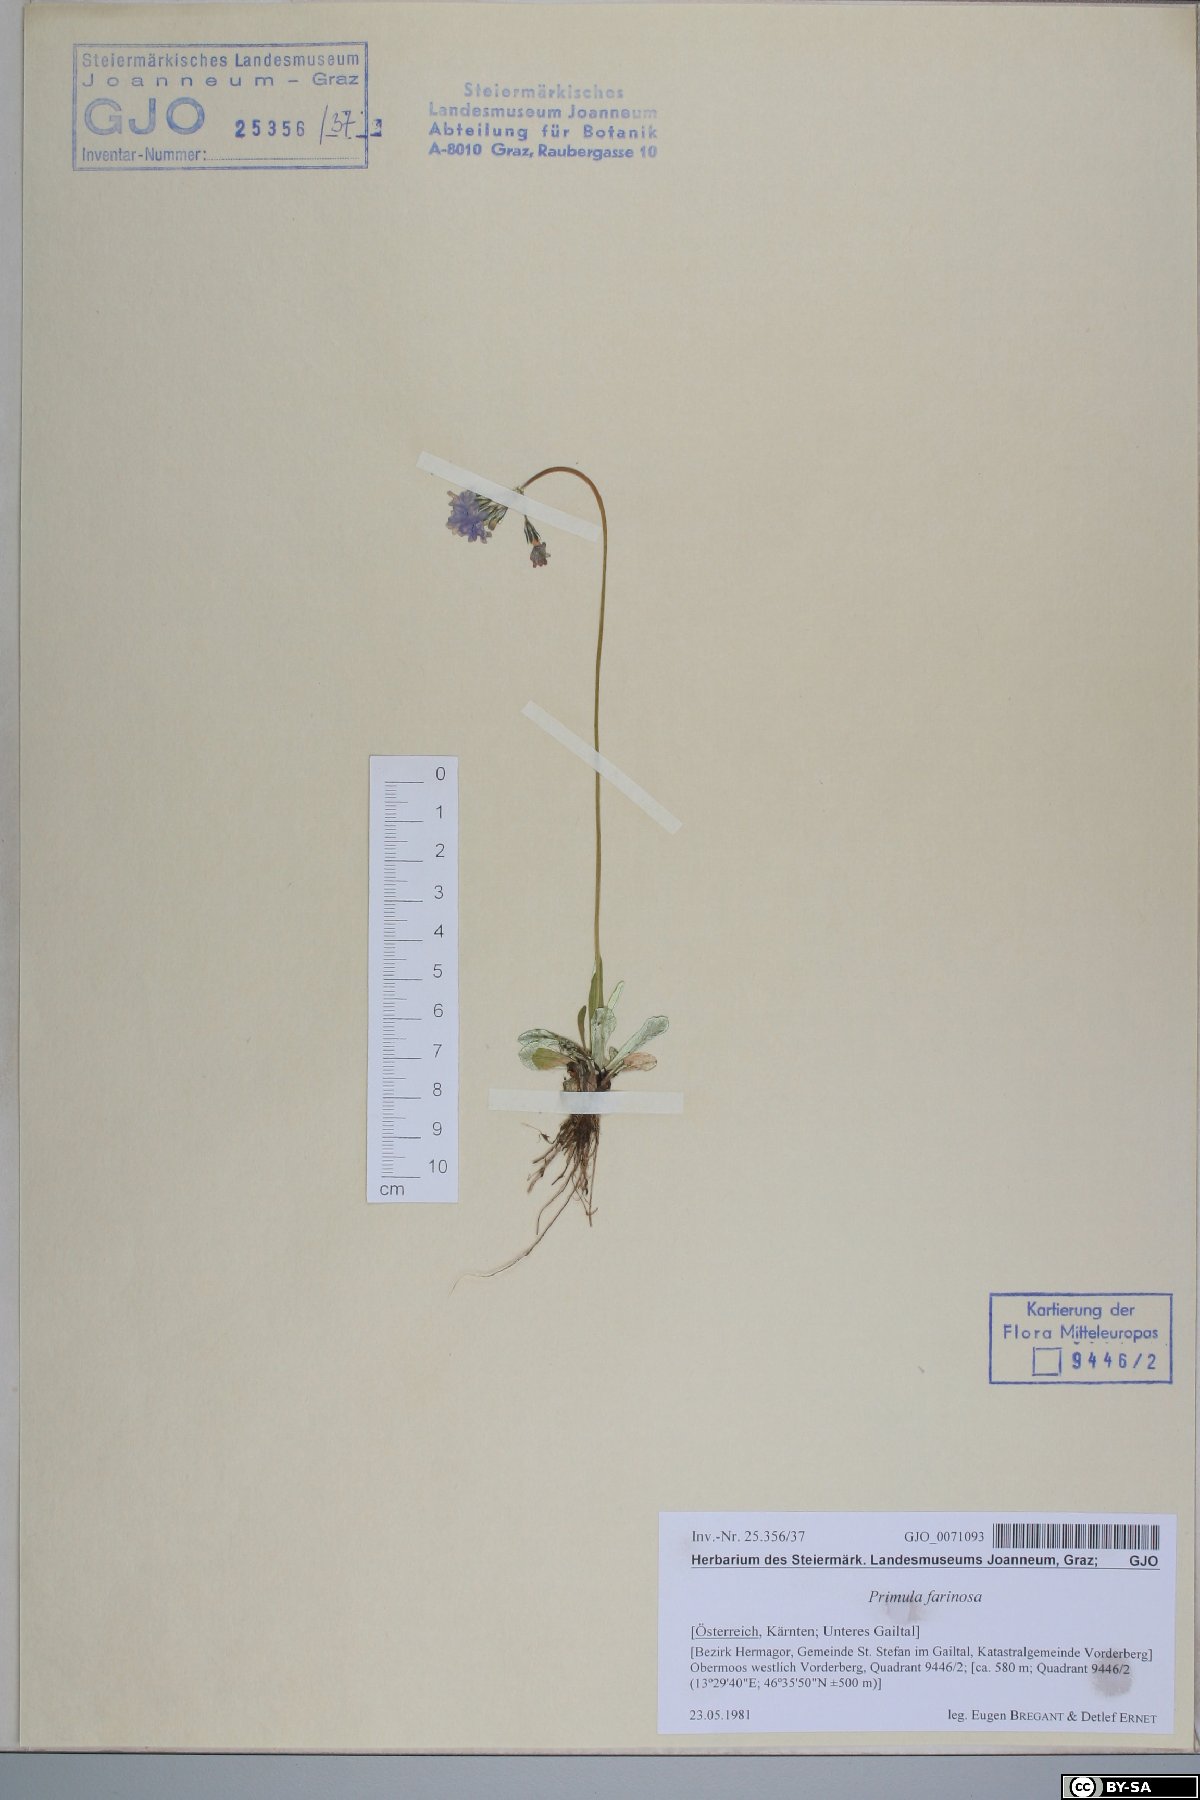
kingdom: Plantae
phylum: Tracheophyta
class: Magnoliopsida
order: Ericales
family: Primulaceae
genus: Primula
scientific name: Primula farinosa
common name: Bird's-eye primrose
